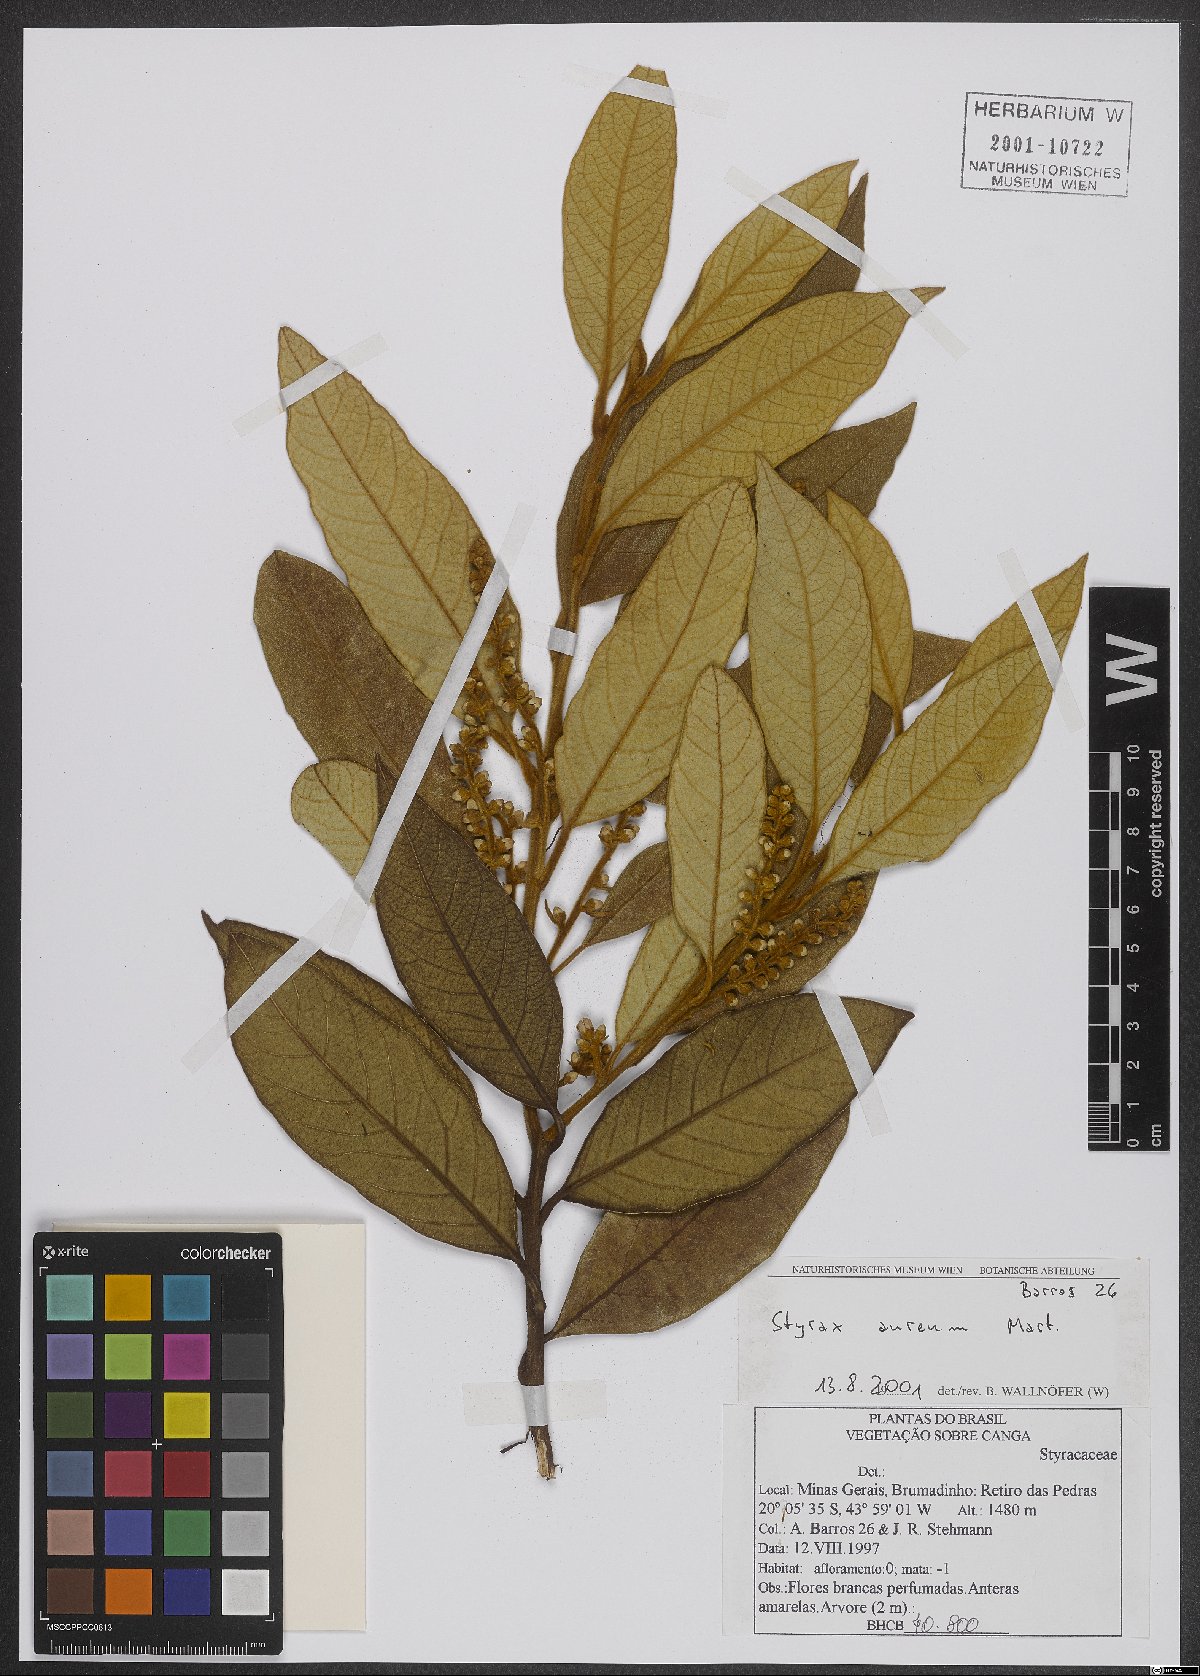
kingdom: Plantae
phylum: Tracheophyta
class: Magnoliopsida
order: Ericales
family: Styracaceae
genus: Styrax
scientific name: Styrax aureus
